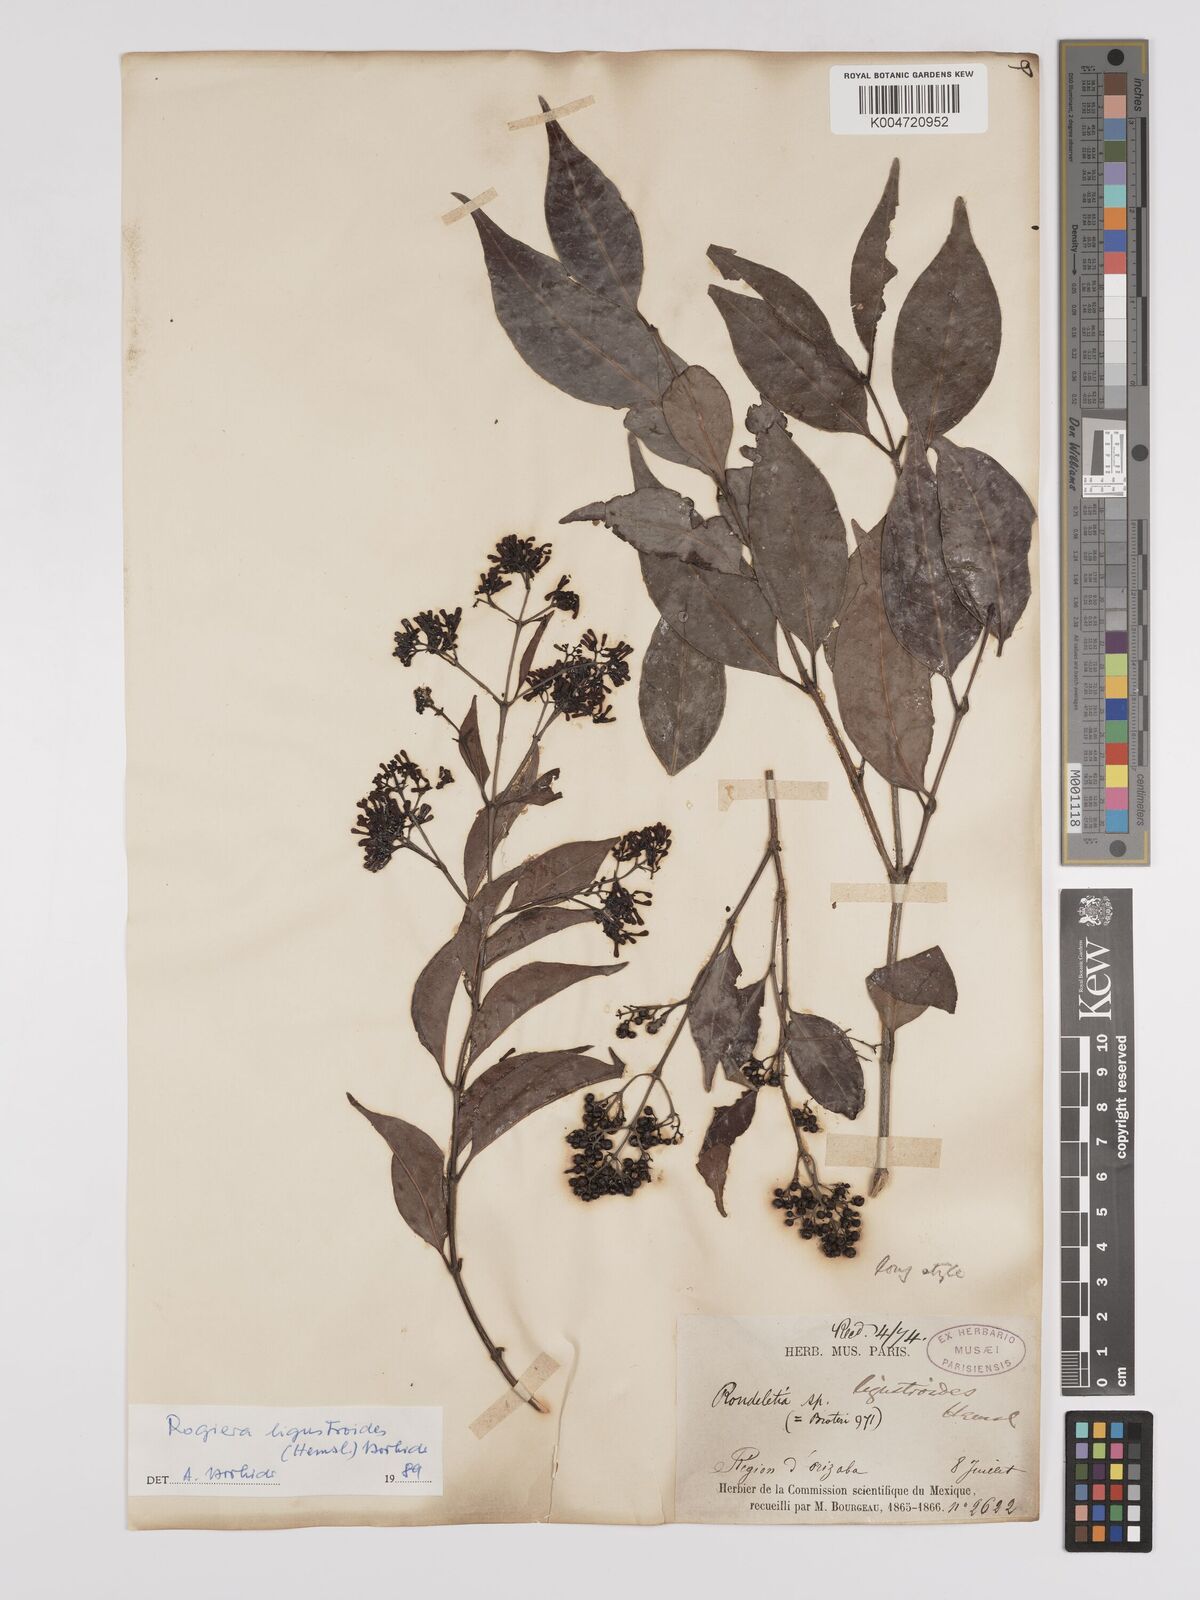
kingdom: Plantae
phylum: Tracheophyta
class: Magnoliopsida
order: Gentianales
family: Rubiaceae
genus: Rogiera
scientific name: Rogiera ligustroides
